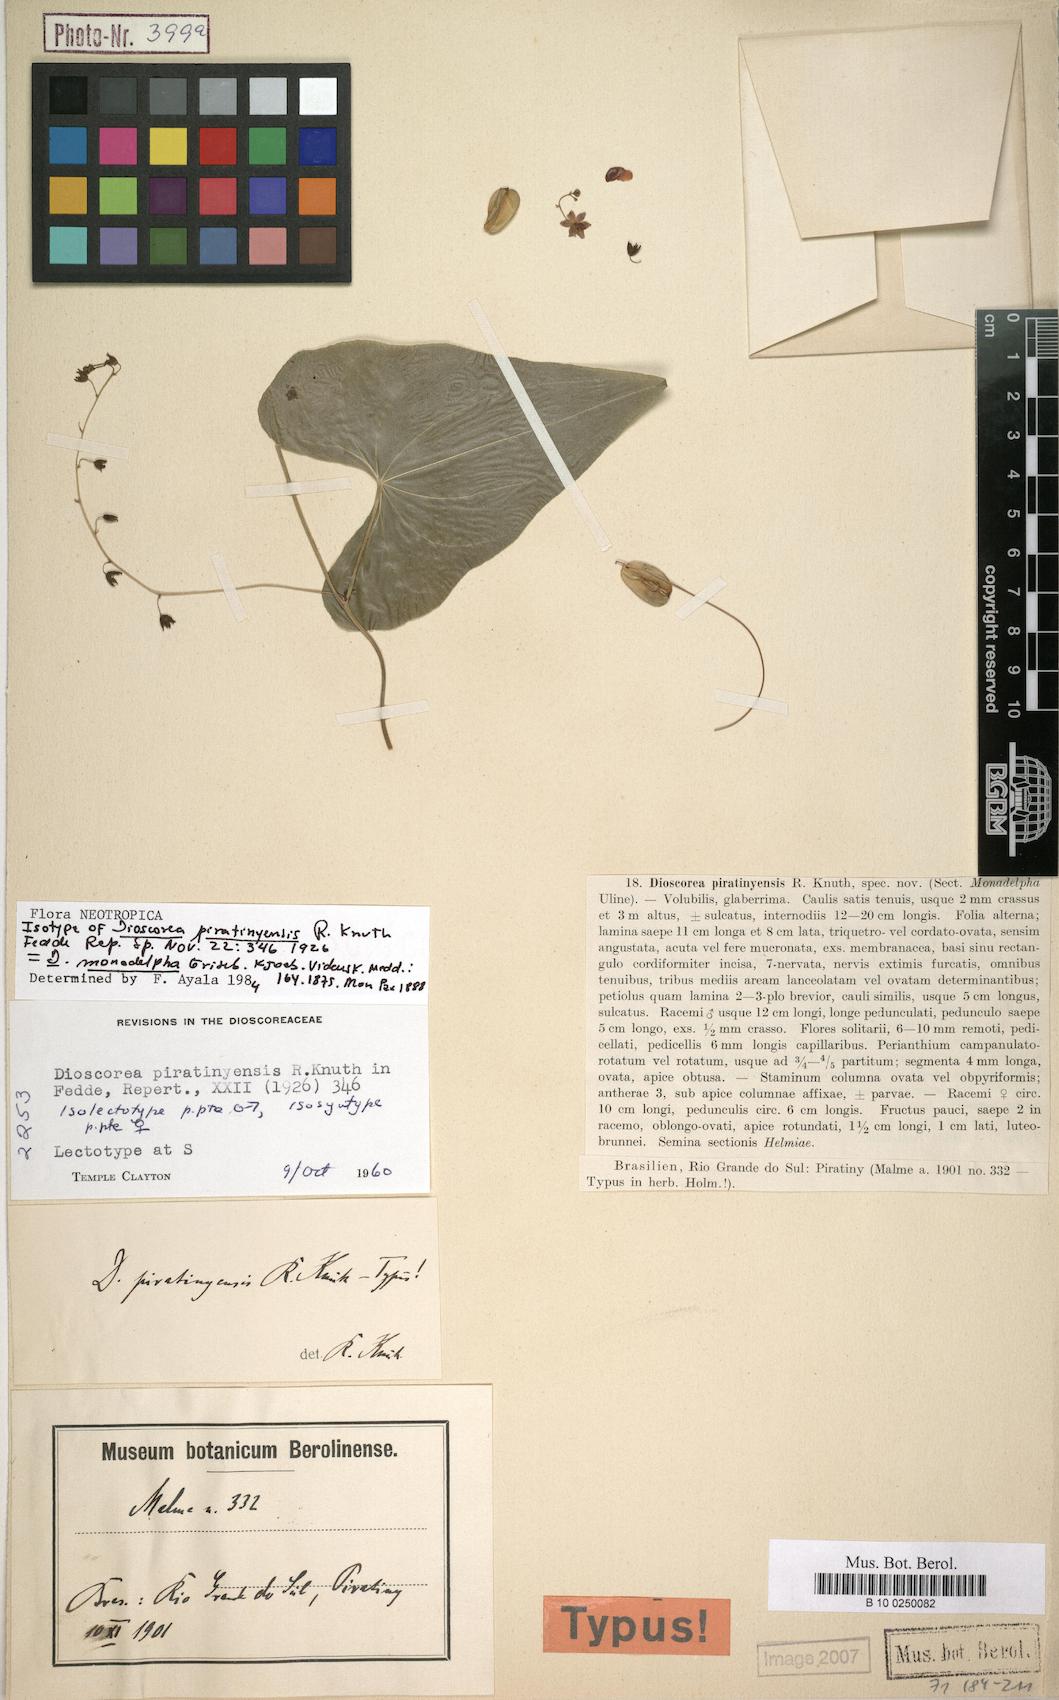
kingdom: Plantae
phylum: Tracheophyta
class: Liliopsida
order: Dioscoreales
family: Dioscoreaceae
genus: Dioscorea
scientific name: Dioscorea monadelpha
